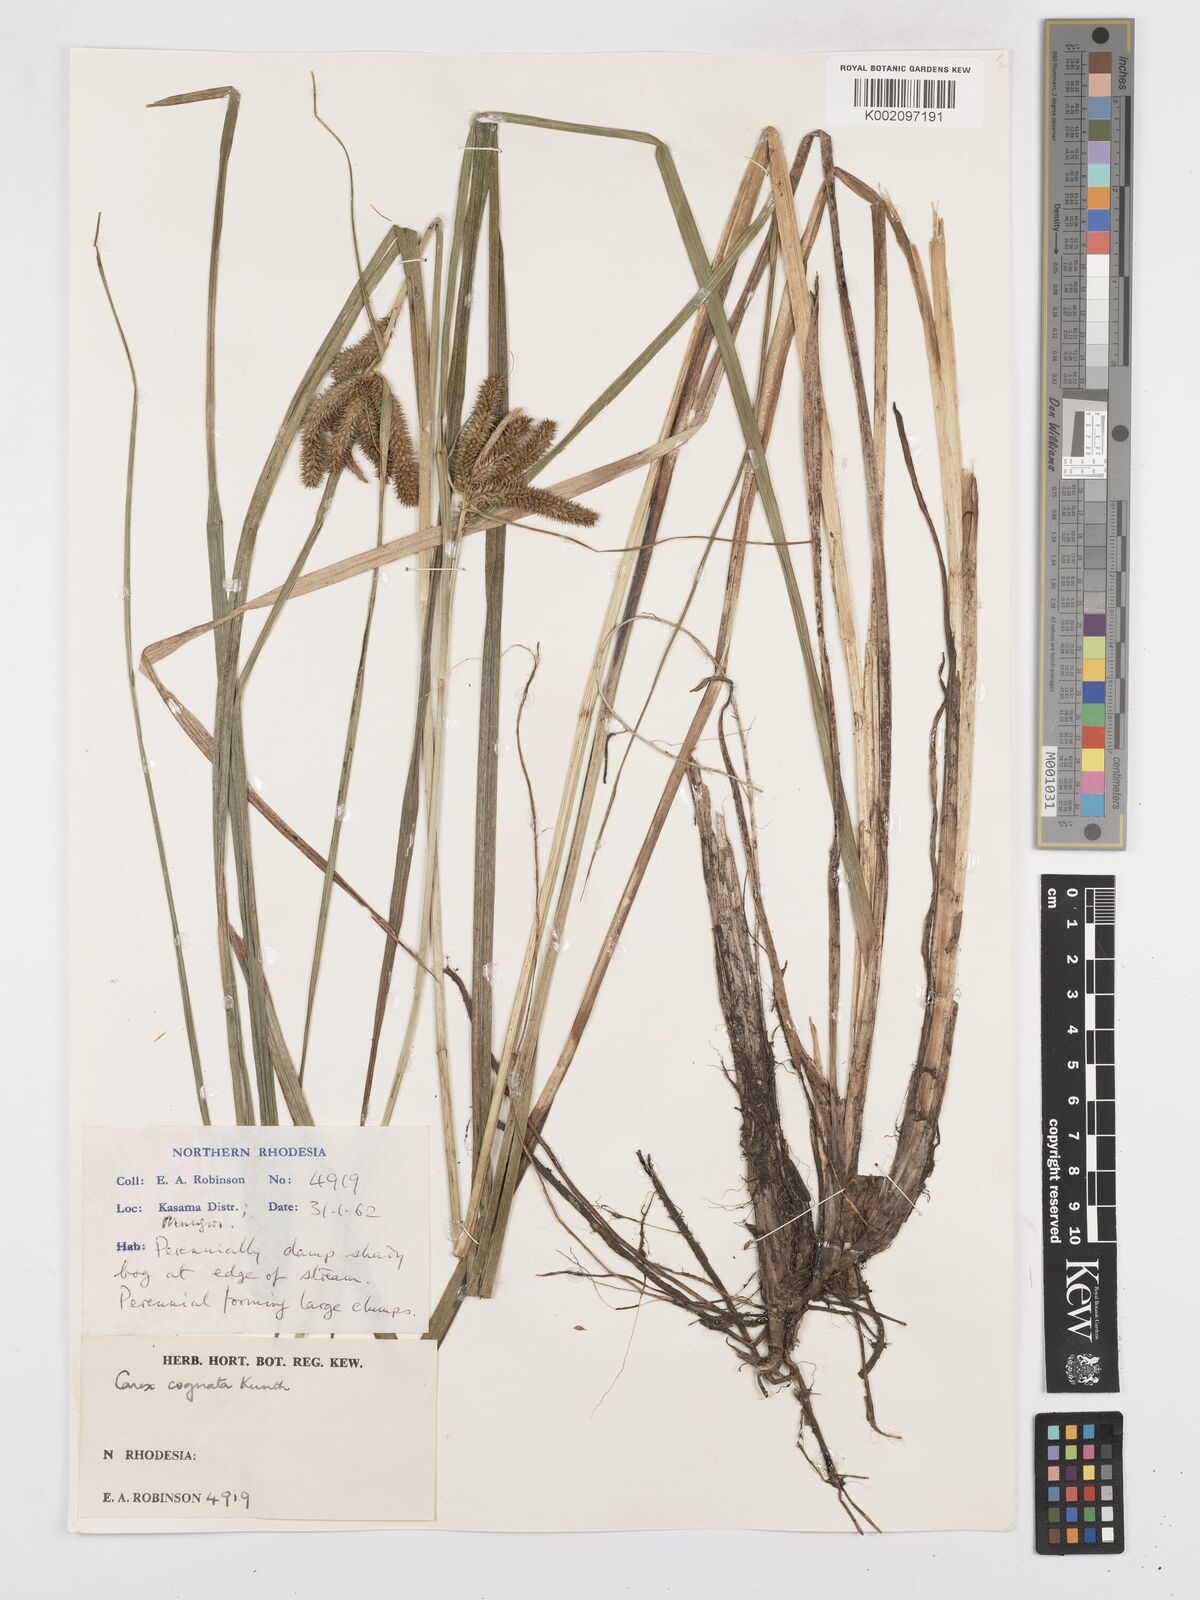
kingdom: Plantae
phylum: Tracheophyta
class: Liliopsida
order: Poales
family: Cyperaceae
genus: Carex
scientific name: Carex cognata
